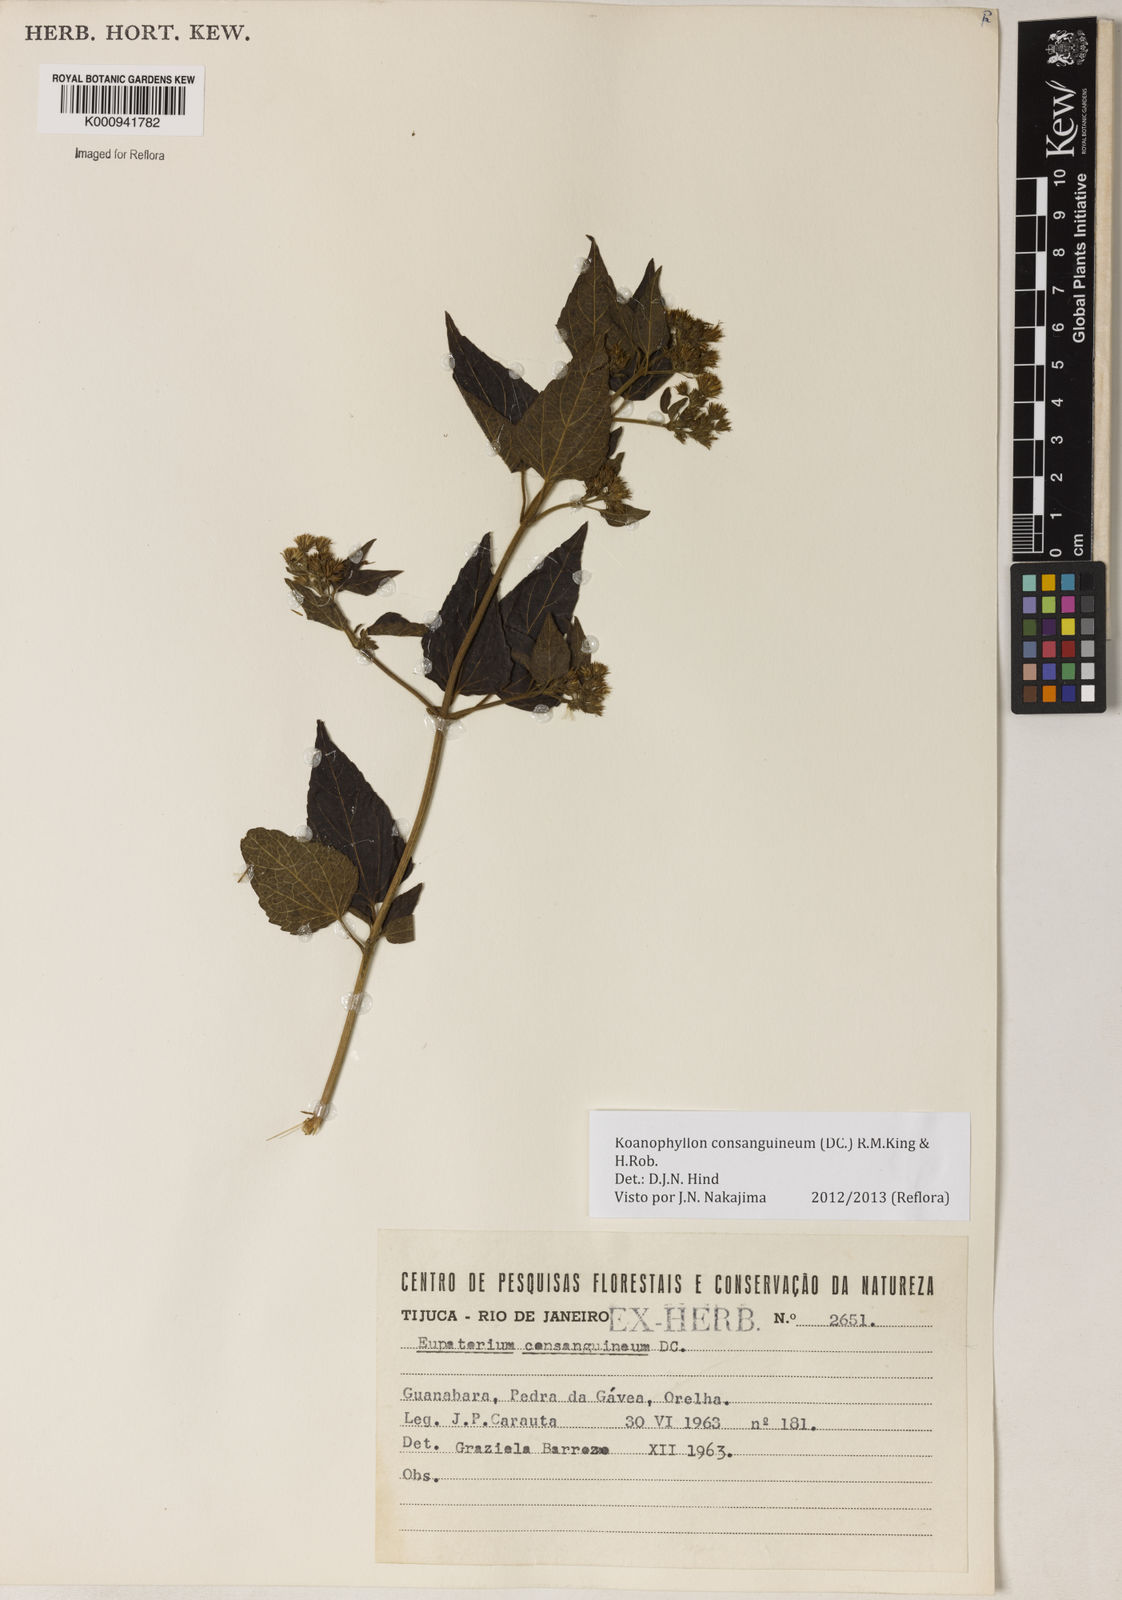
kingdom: Plantae
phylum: Tracheophyta
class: Magnoliopsida
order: Asterales
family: Asteraceae
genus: Koanophyllon
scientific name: Koanophyllon consanguineum
